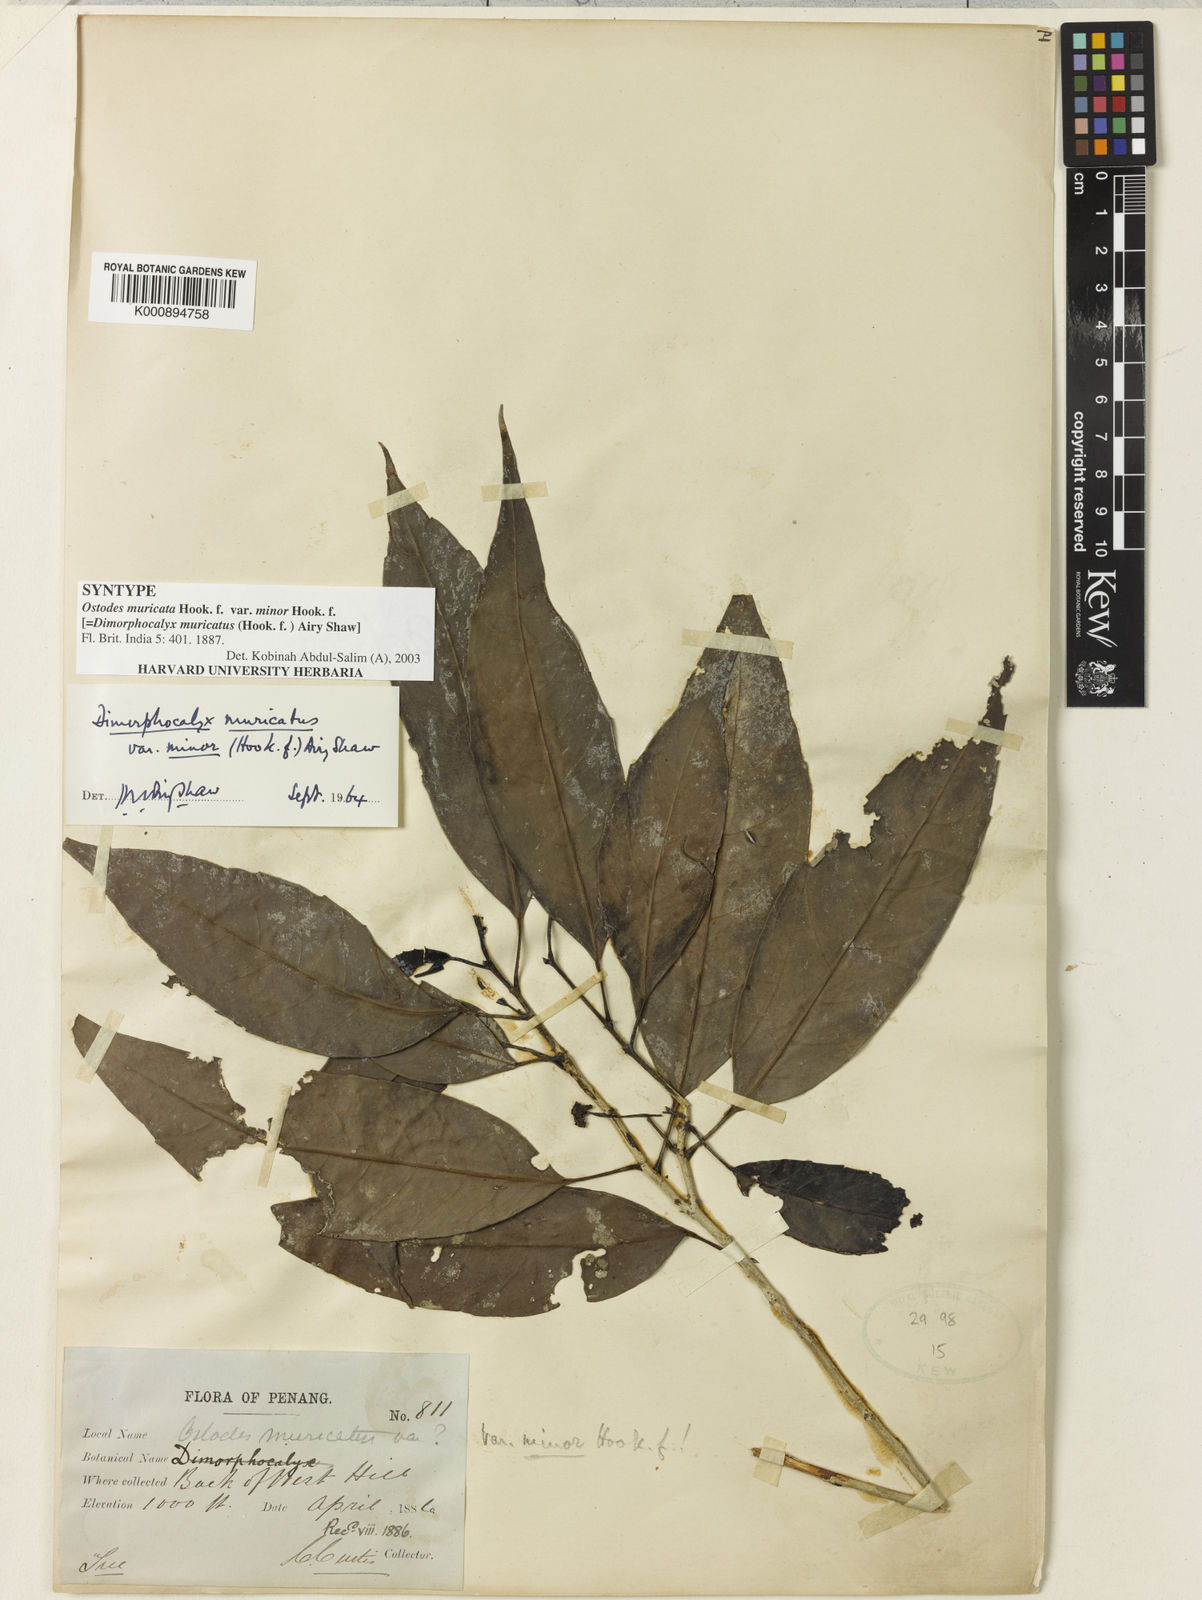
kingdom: Plantae
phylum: Tracheophyta
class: Magnoliopsida
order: Malpighiales
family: Euphorbiaceae
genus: Tritaxis
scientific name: Tritaxis muricata
